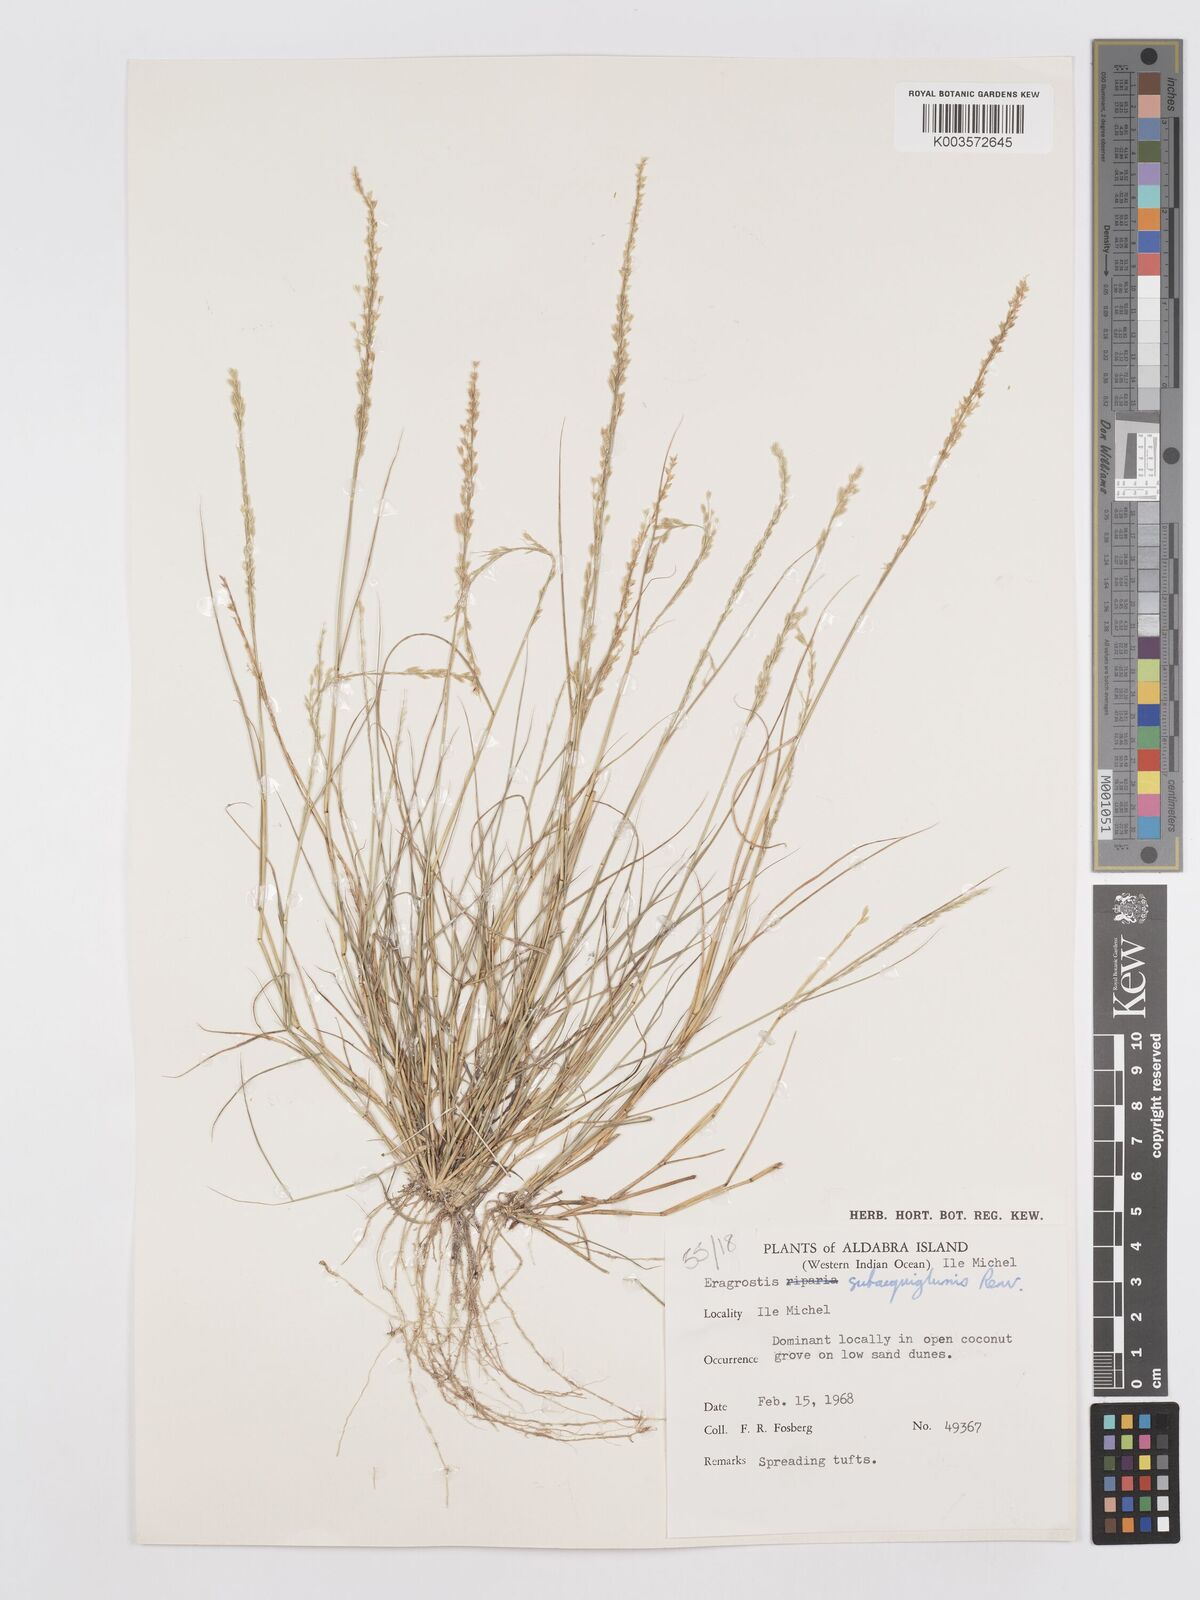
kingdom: Plantae
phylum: Tracheophyta
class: Liliopsida
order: Poales
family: Poaceae
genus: Eragrostis
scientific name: Eragrostis subaequiglumis
